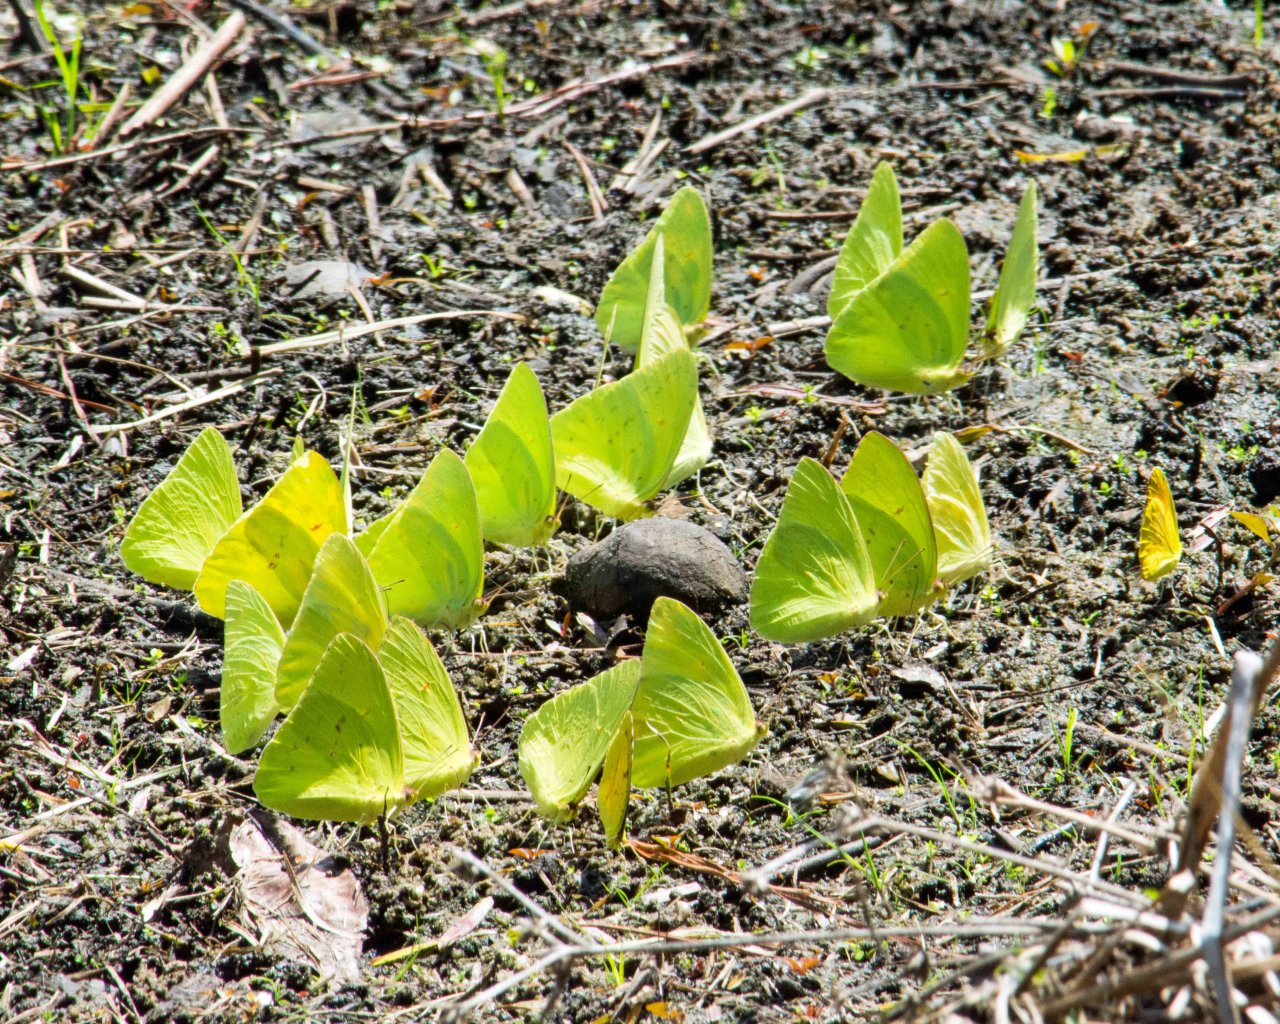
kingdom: Animalia
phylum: Arthropoda
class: Insecta
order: Lepidoptera
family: Pieridae
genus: Phoebis
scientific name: Phoebis sennae
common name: Cloudless Sulphur
